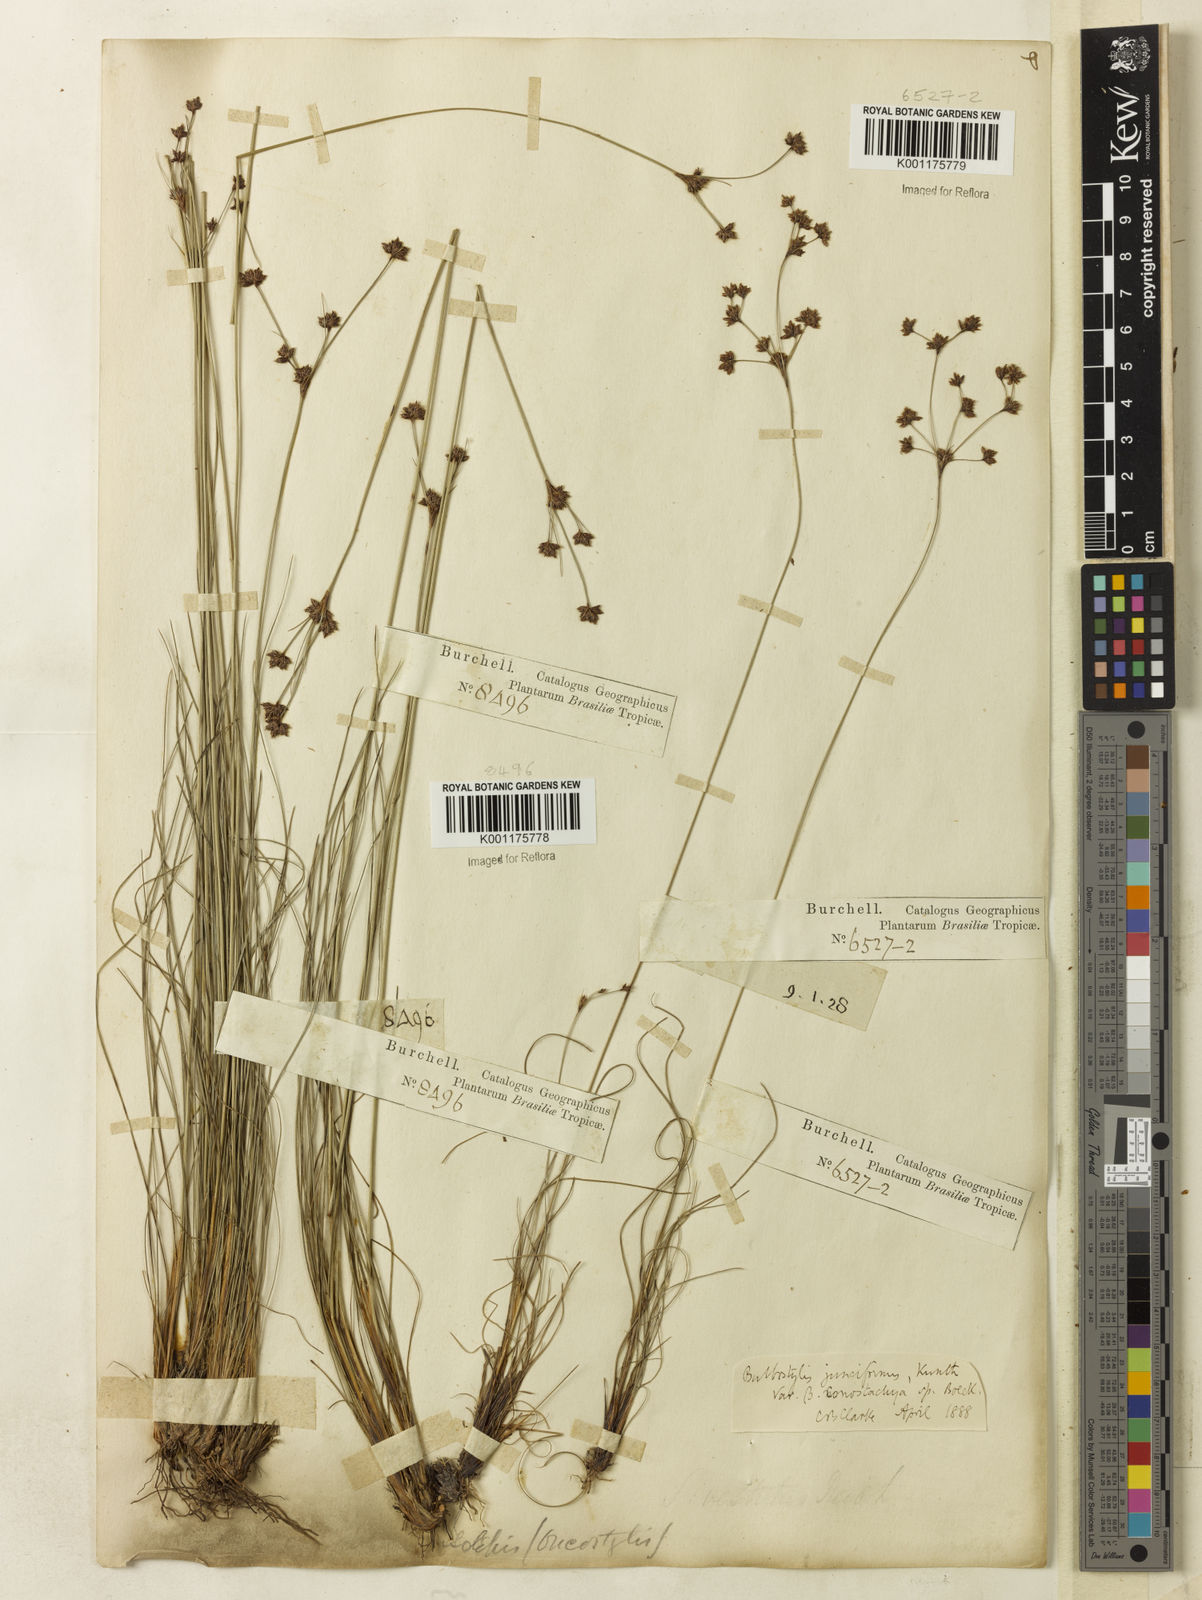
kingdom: Plantae
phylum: Tracheophyta
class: Liliopsida
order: Poales
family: Cyperaceae
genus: Bulbostylis
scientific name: Bulbostylis conostachya
